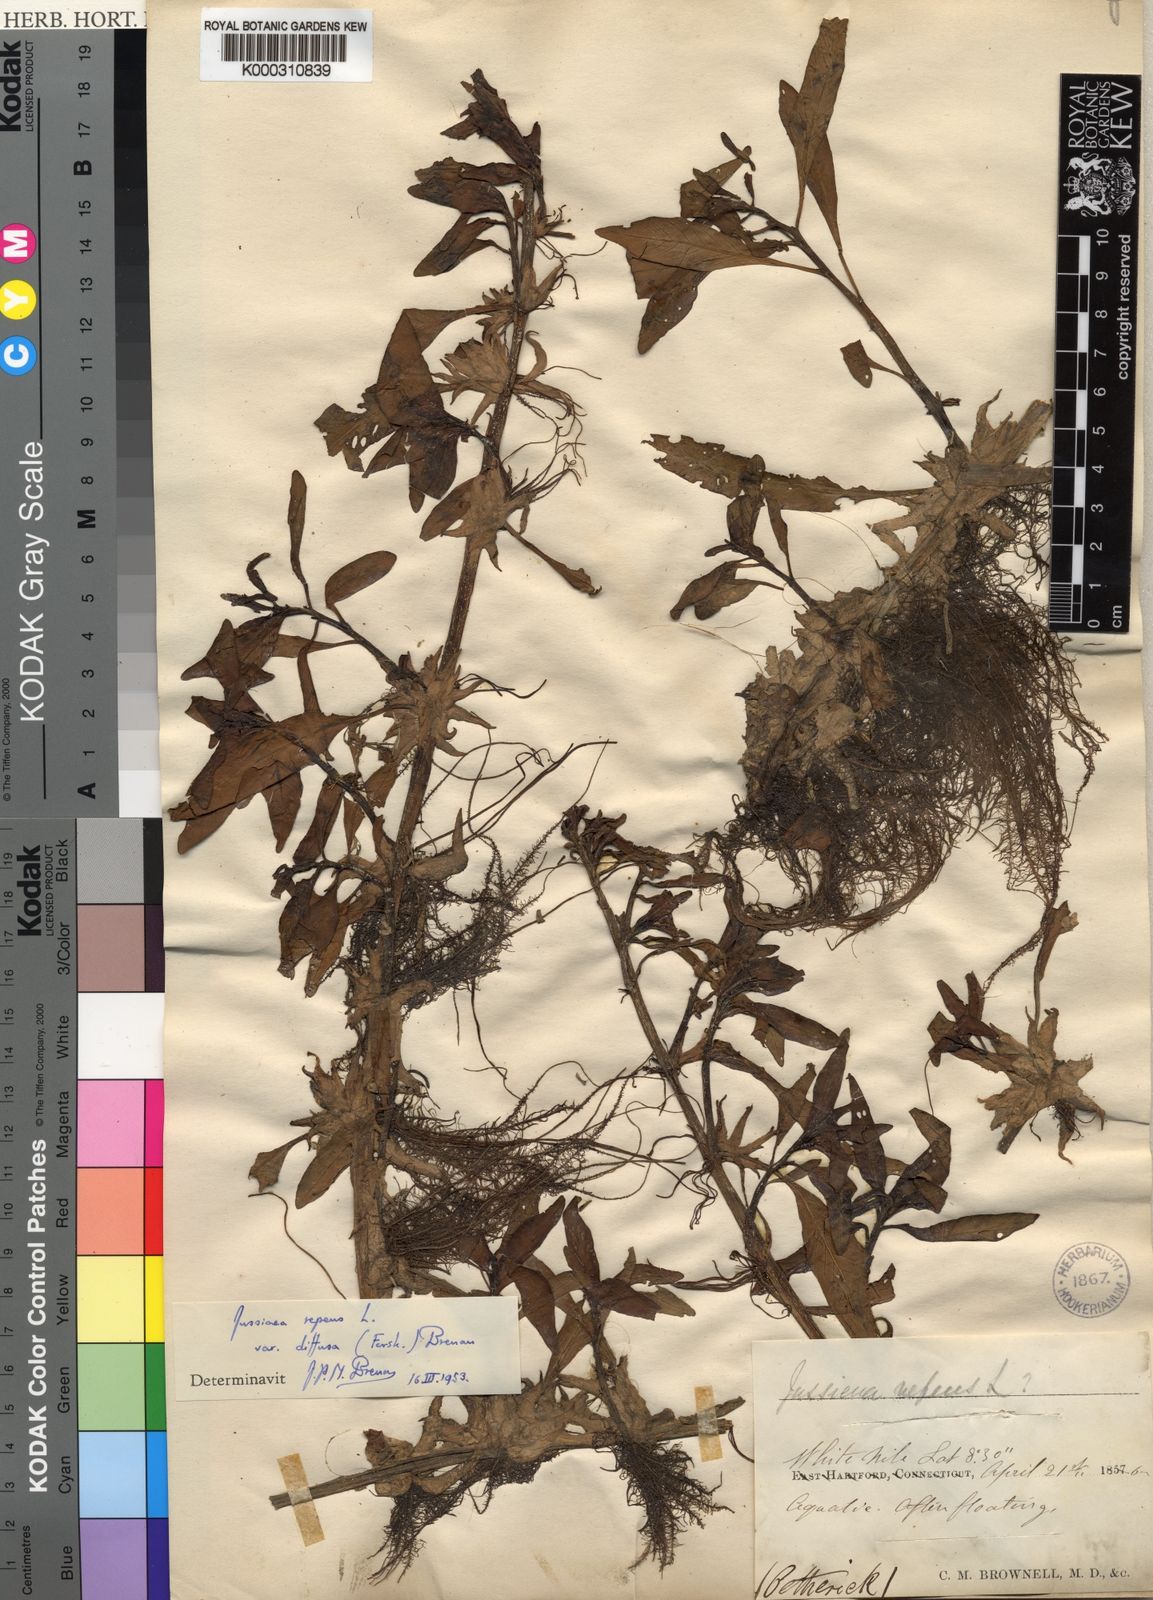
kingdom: Plantae
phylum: Tracheophyta
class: Magnoliopsida
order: Myrtales
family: Onagraceae
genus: Ludwigia
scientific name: Ludwigia adscendens
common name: Creeping water primrose
